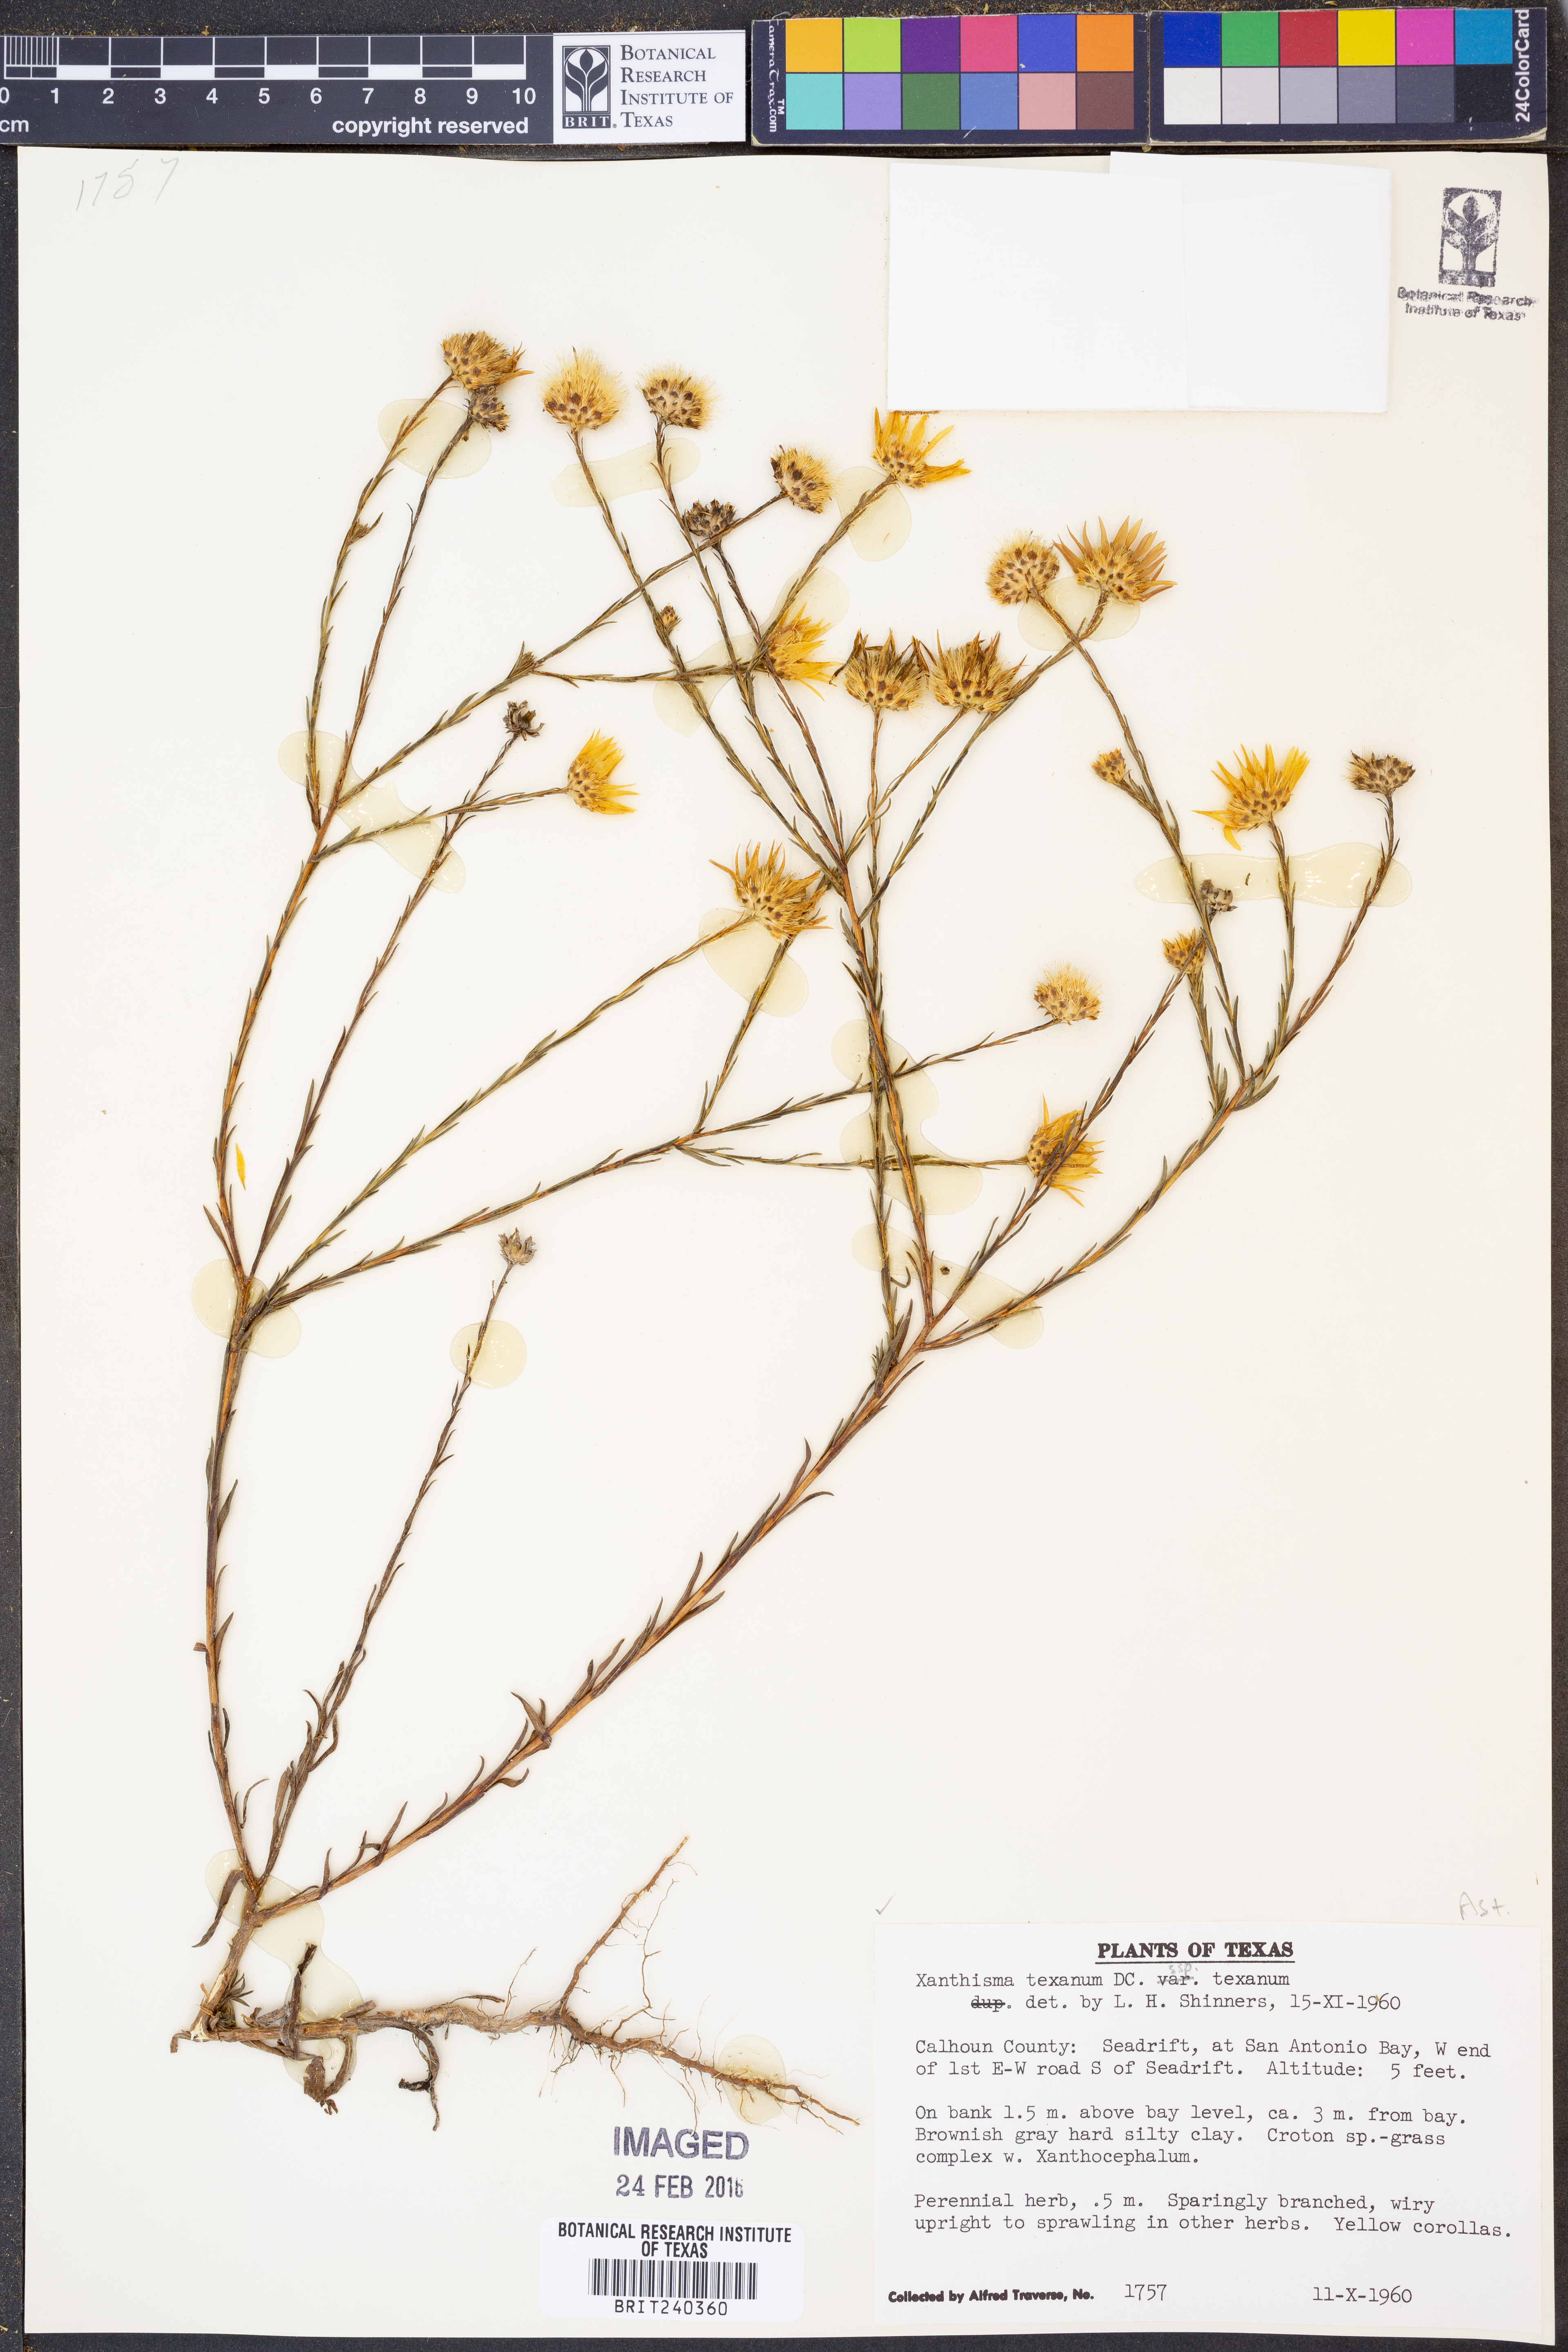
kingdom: Plantae
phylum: Tracheophyta
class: Magnoliopsida
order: Asterales
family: Asteraceae
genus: Xanthisma
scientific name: Xanthisma texanum
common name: Texas sleepy daisy
